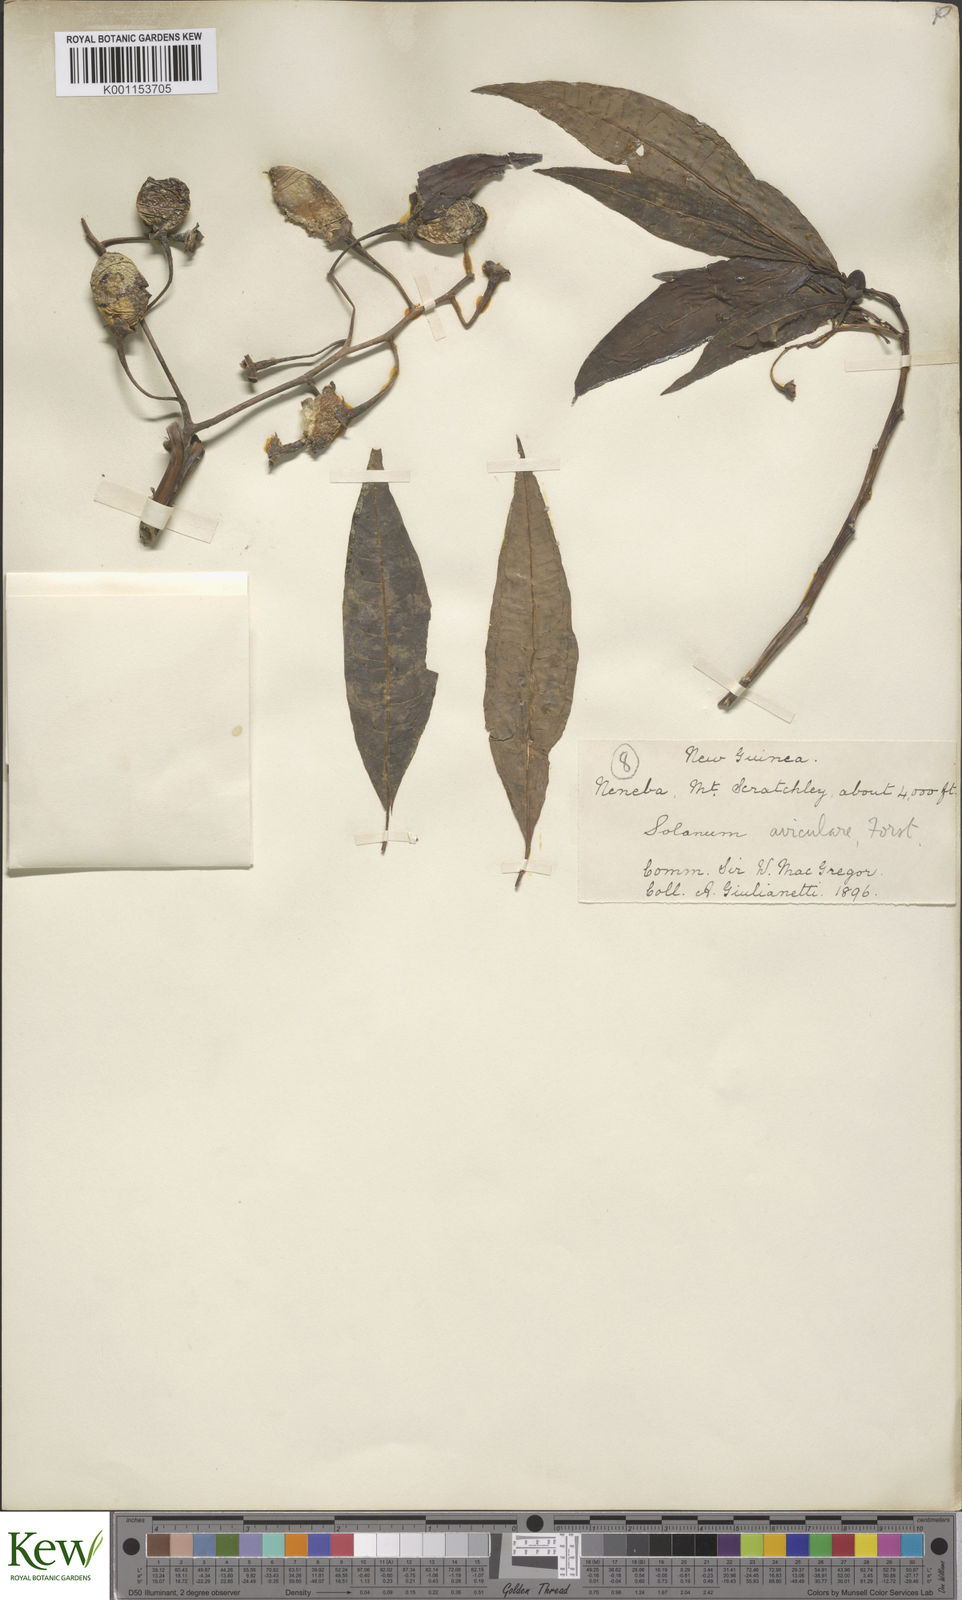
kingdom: Plantae
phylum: Tracheophyta
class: Magnoliopsida
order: Solanales
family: Solanaceae
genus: Solanum
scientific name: Solanum aviculare
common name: New zealand nightshade
